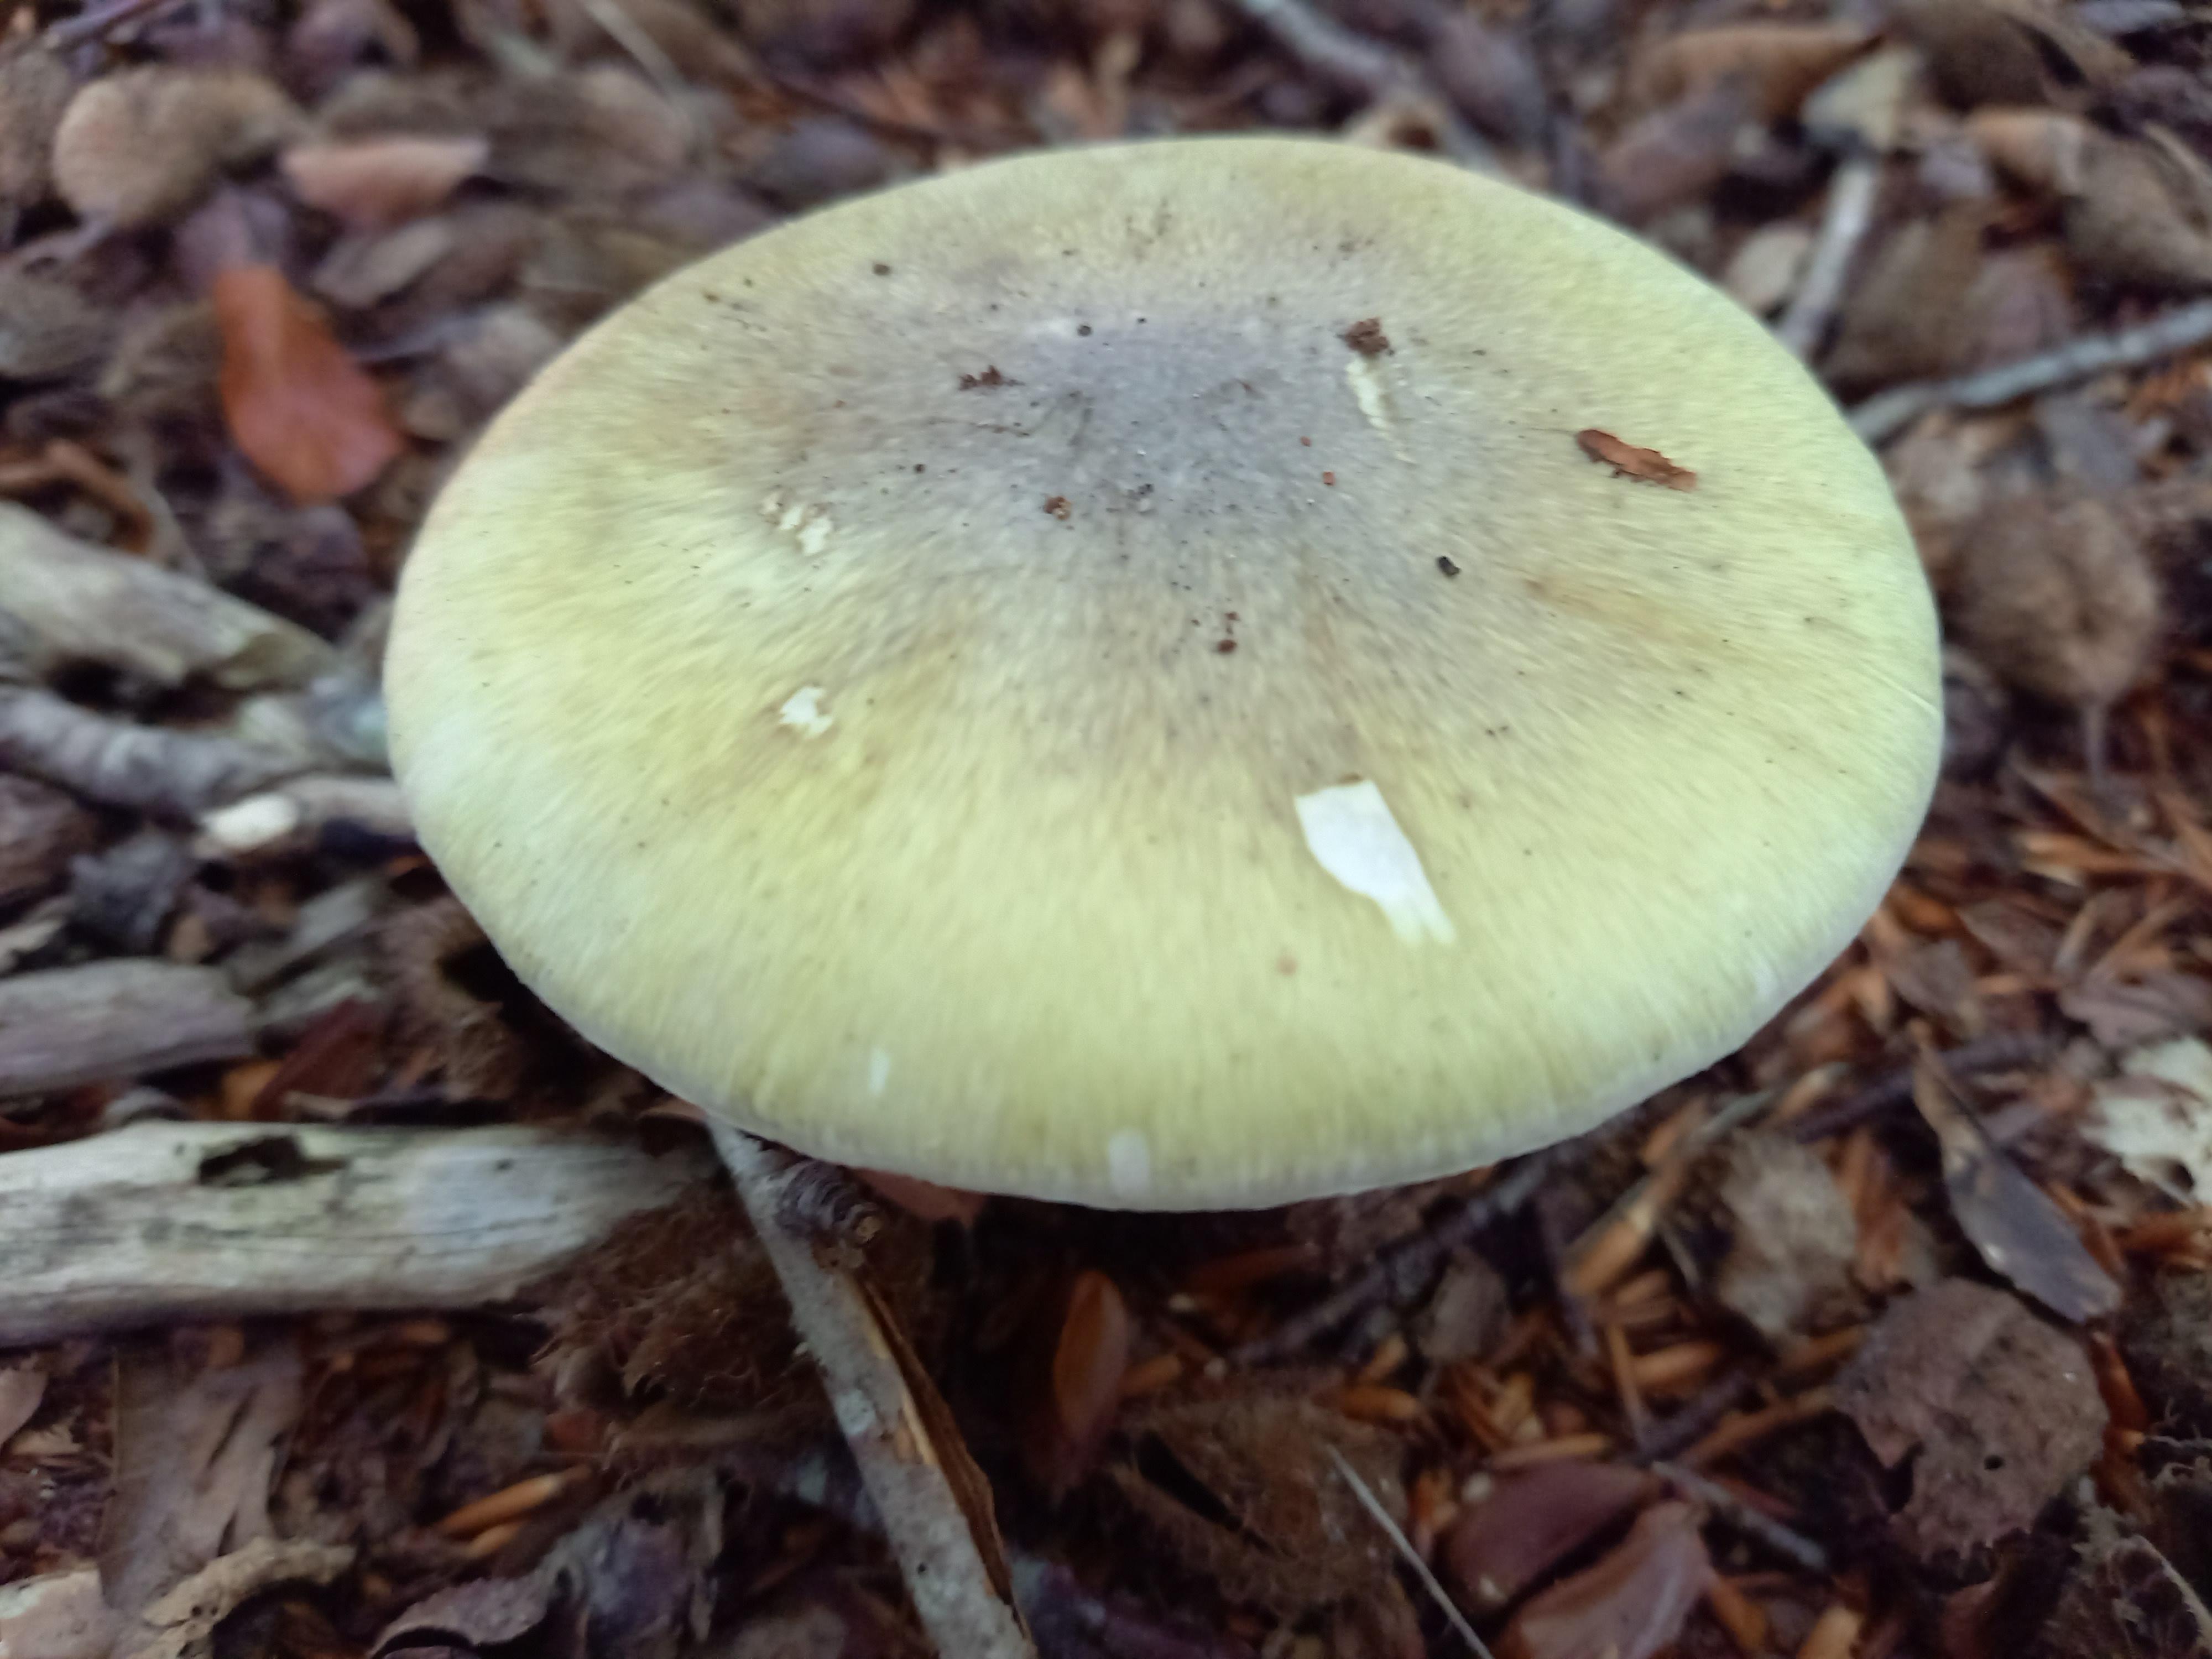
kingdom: Fungi
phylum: Basidiomycota
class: Agaricomycetes
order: Agaricales
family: Amanitaceae
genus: Amanita
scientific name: Amanita phalloides
